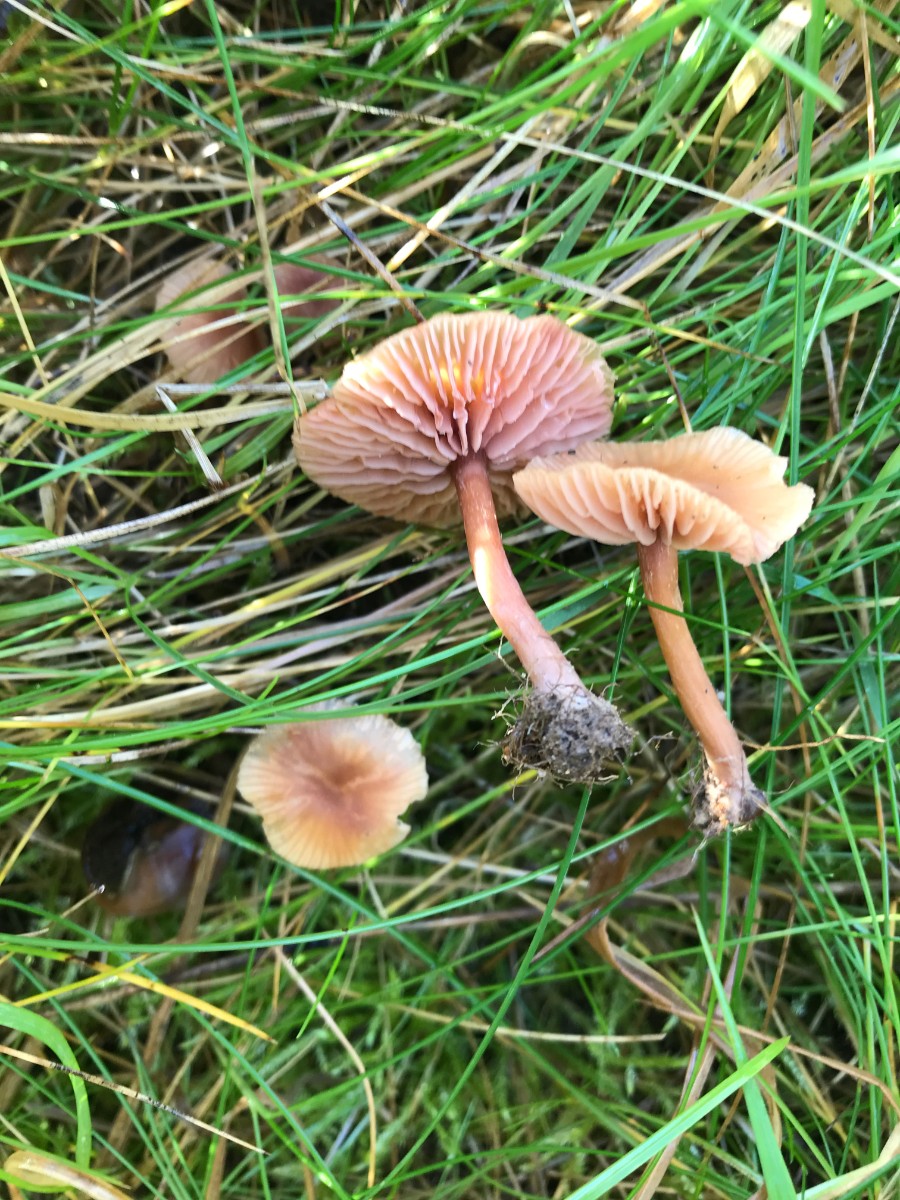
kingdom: Fungi
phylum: Basidiomycota
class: Agaricomycetes
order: Agaricales
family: Hydnangiaceae
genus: Laccaria
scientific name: Laccaria laccata
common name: rød ametysthat
